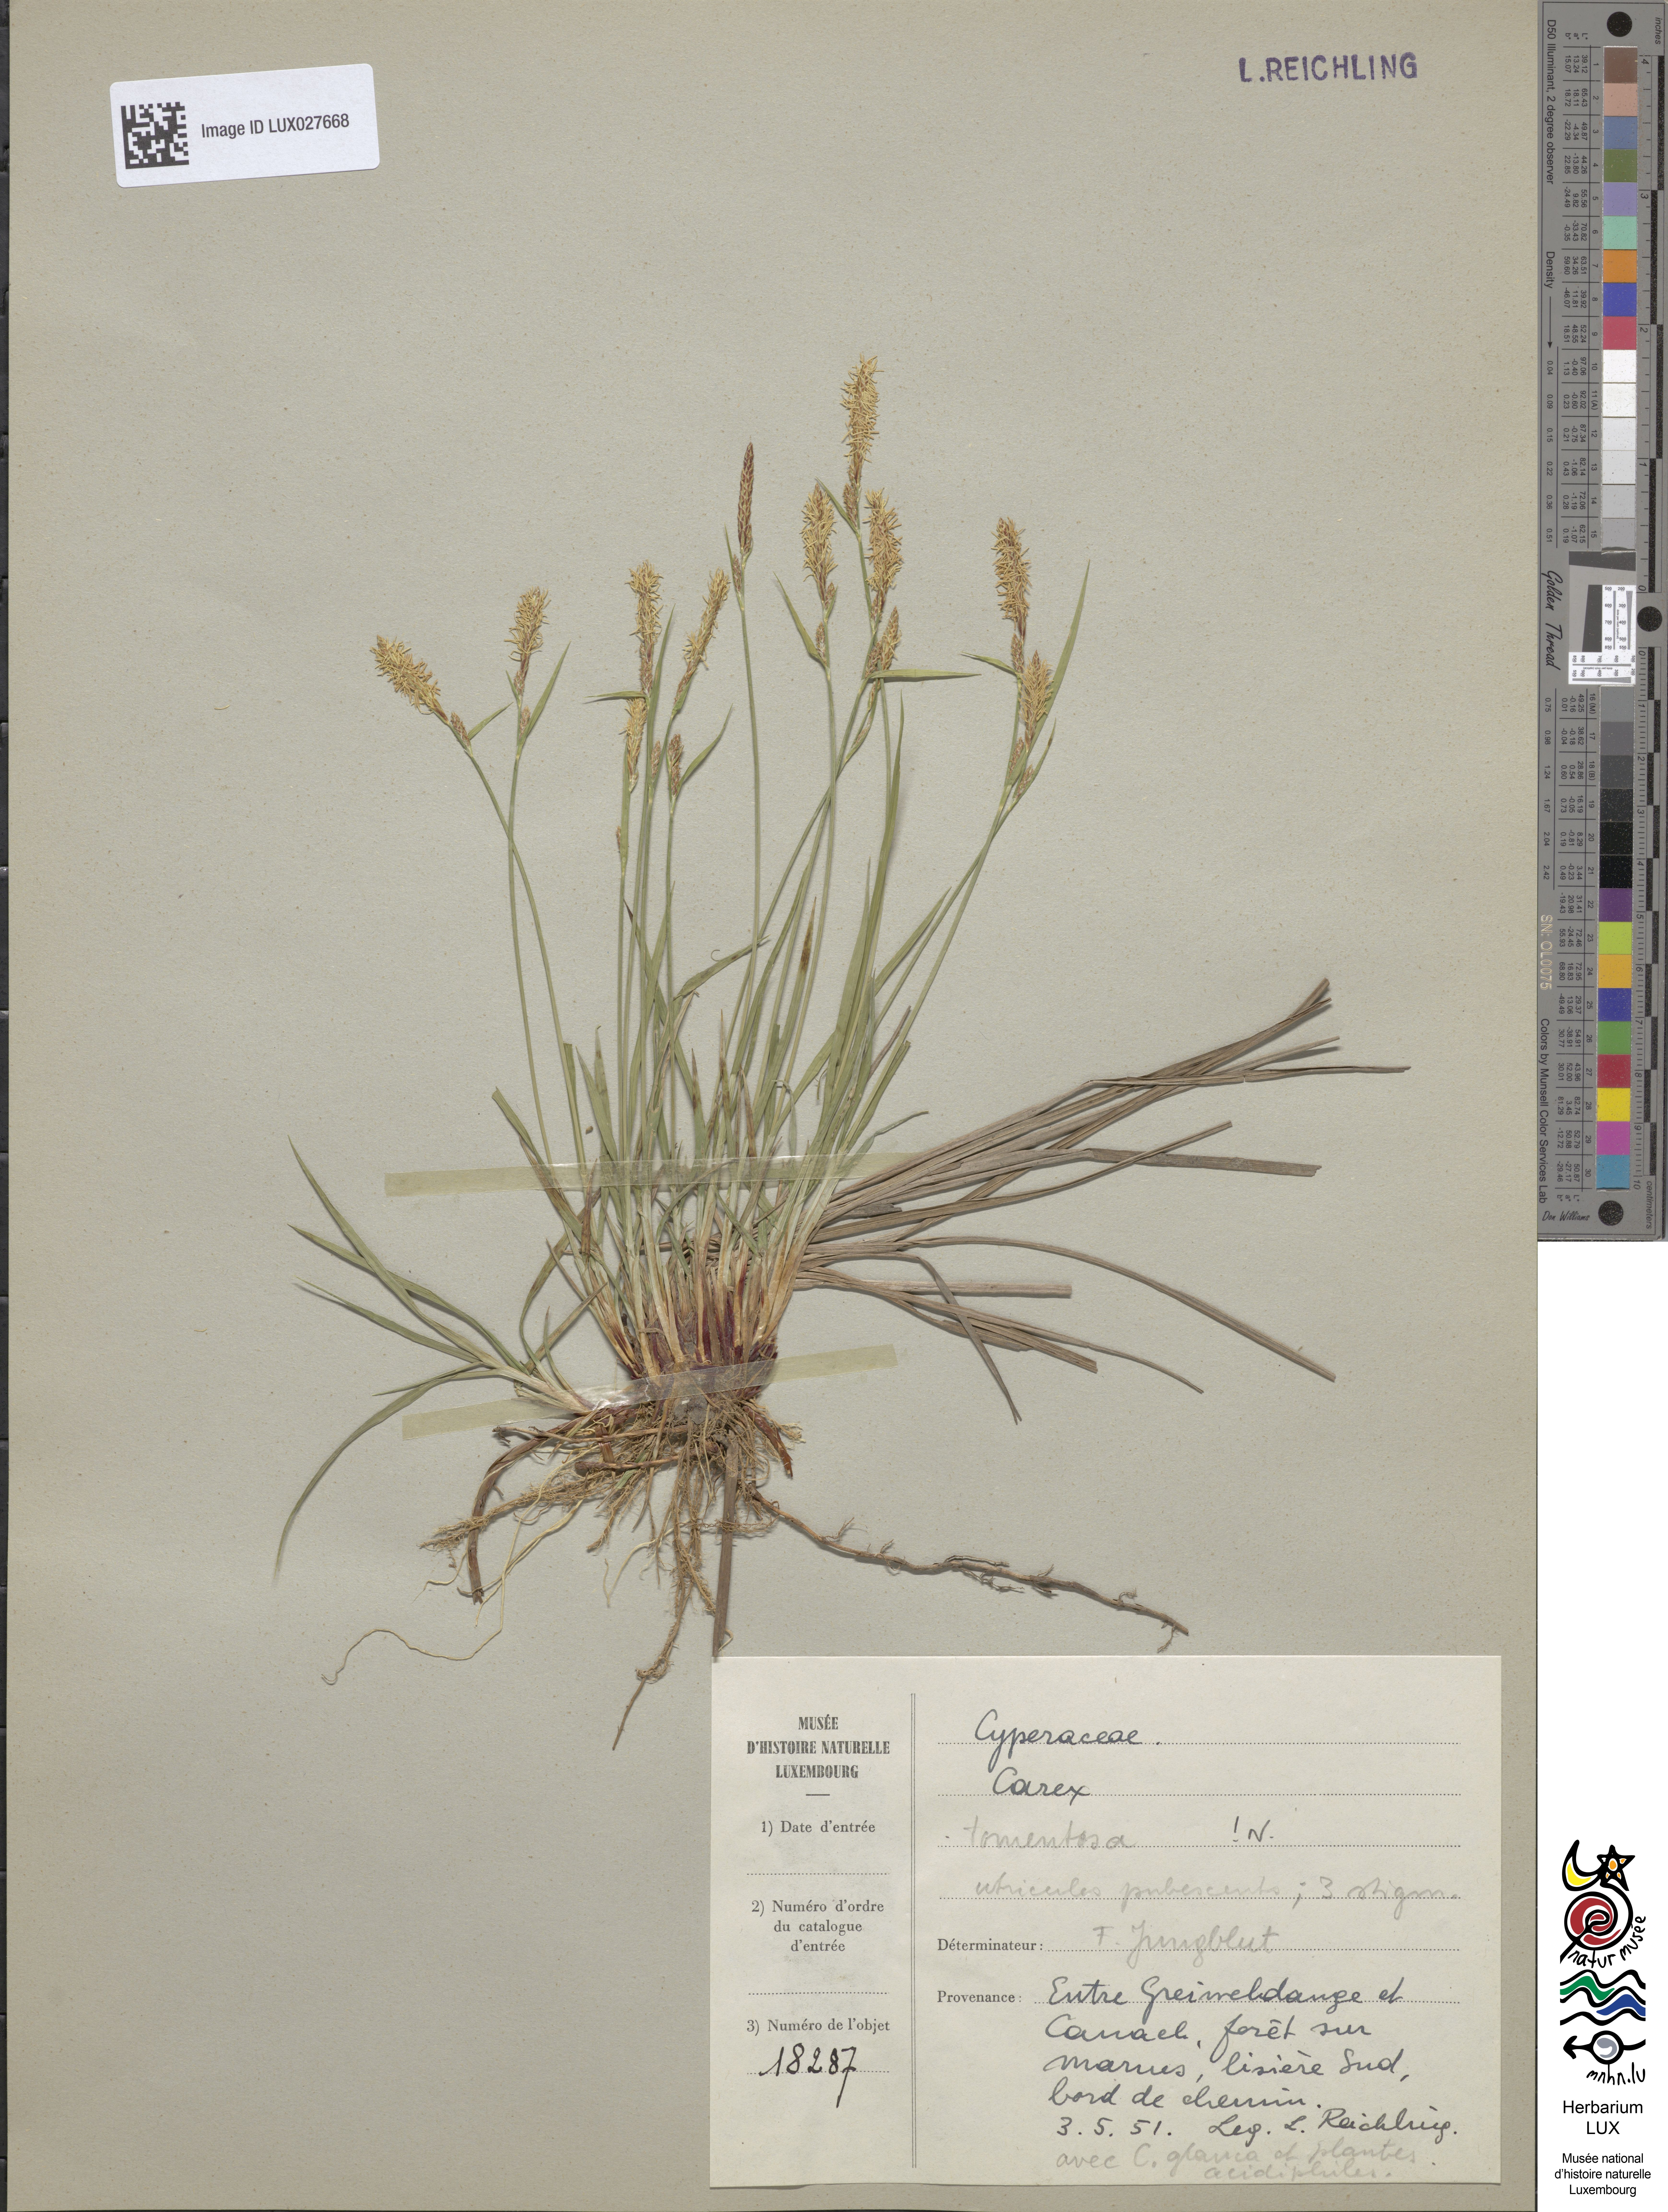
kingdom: Plantae
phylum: Tracheophyta
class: Liliopsida
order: Poales
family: Cyperaceae
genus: Carex
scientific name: Carex tomentosa
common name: Downy-fruited sedge
